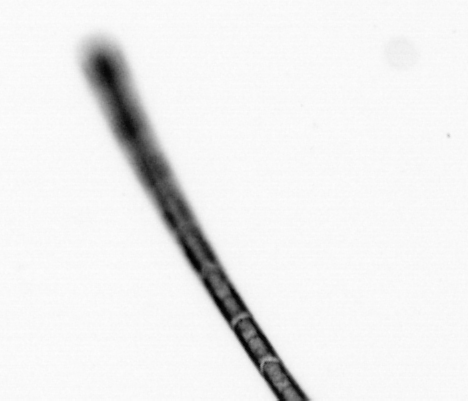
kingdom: Chromista
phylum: Ochrophyta
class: Bacillariophyceae
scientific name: Bacillariophyceae
